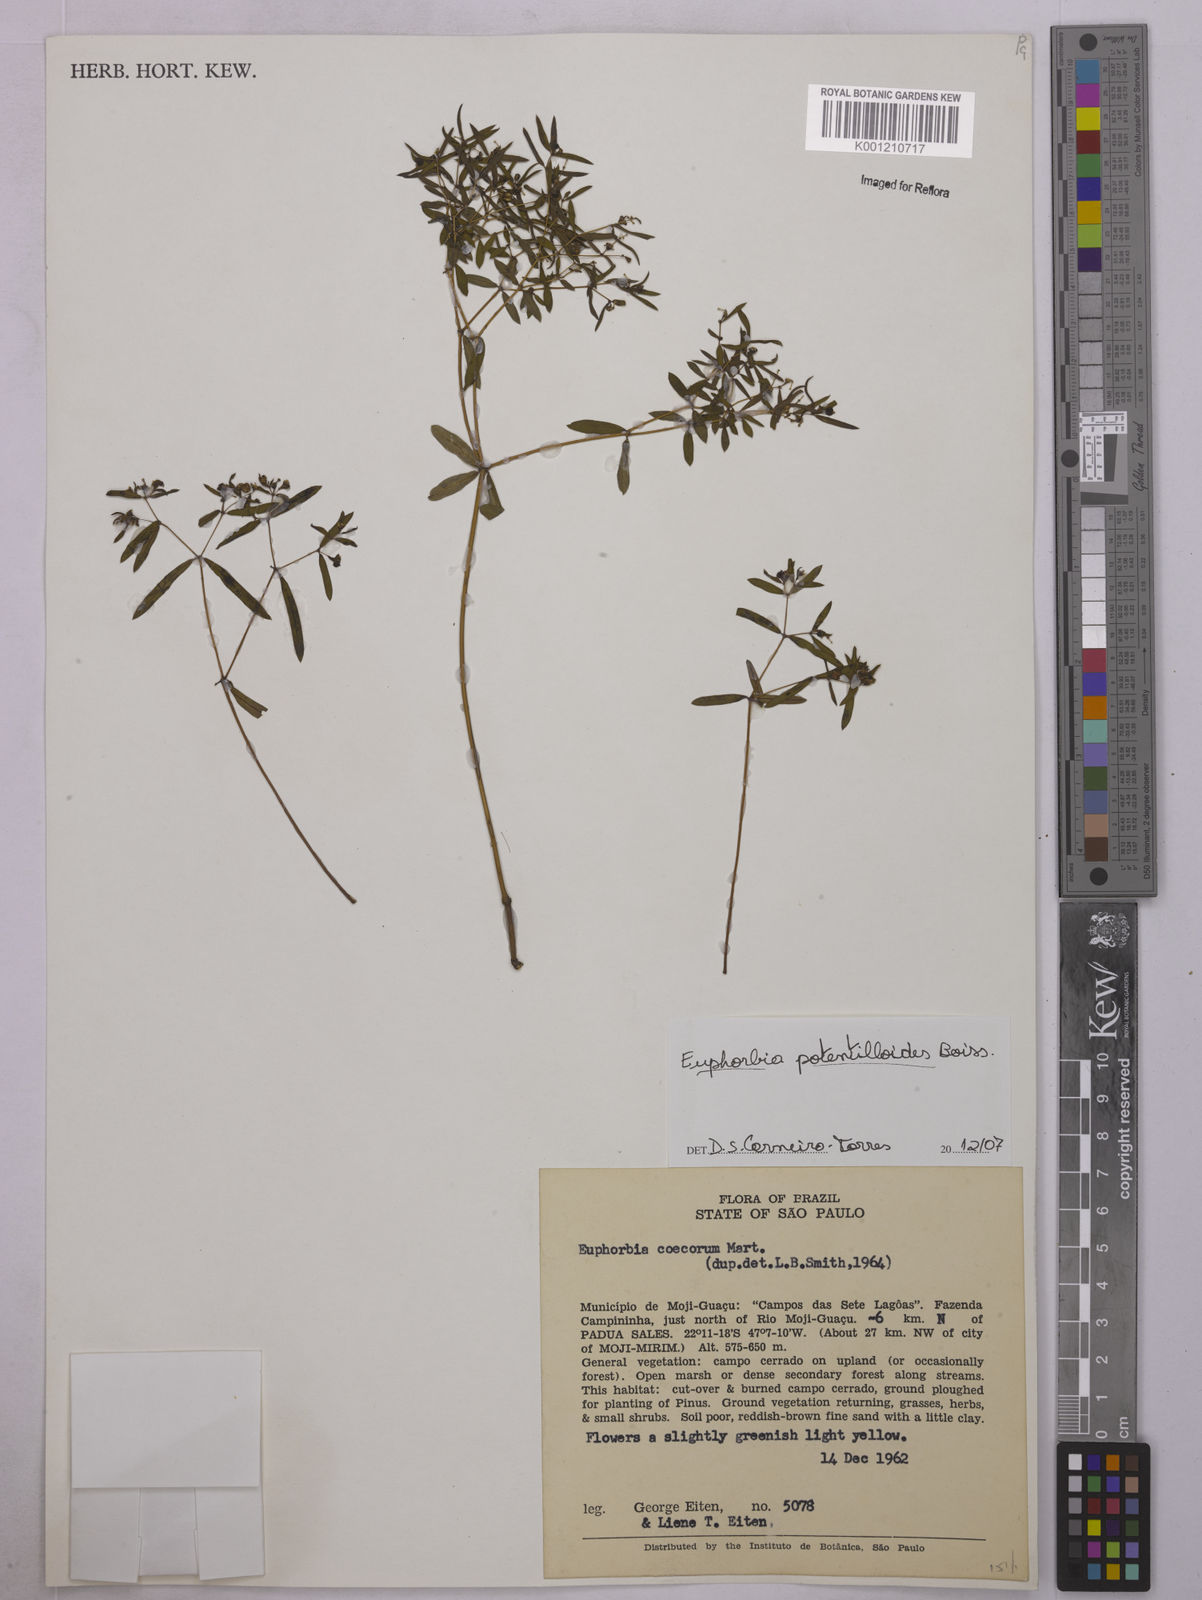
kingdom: Plantae
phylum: Tracheophyta
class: Magnoliopsida
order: Malpighiales
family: Euphorbiaceae
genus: Euphorbia
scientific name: Euphorbia potentilloides
